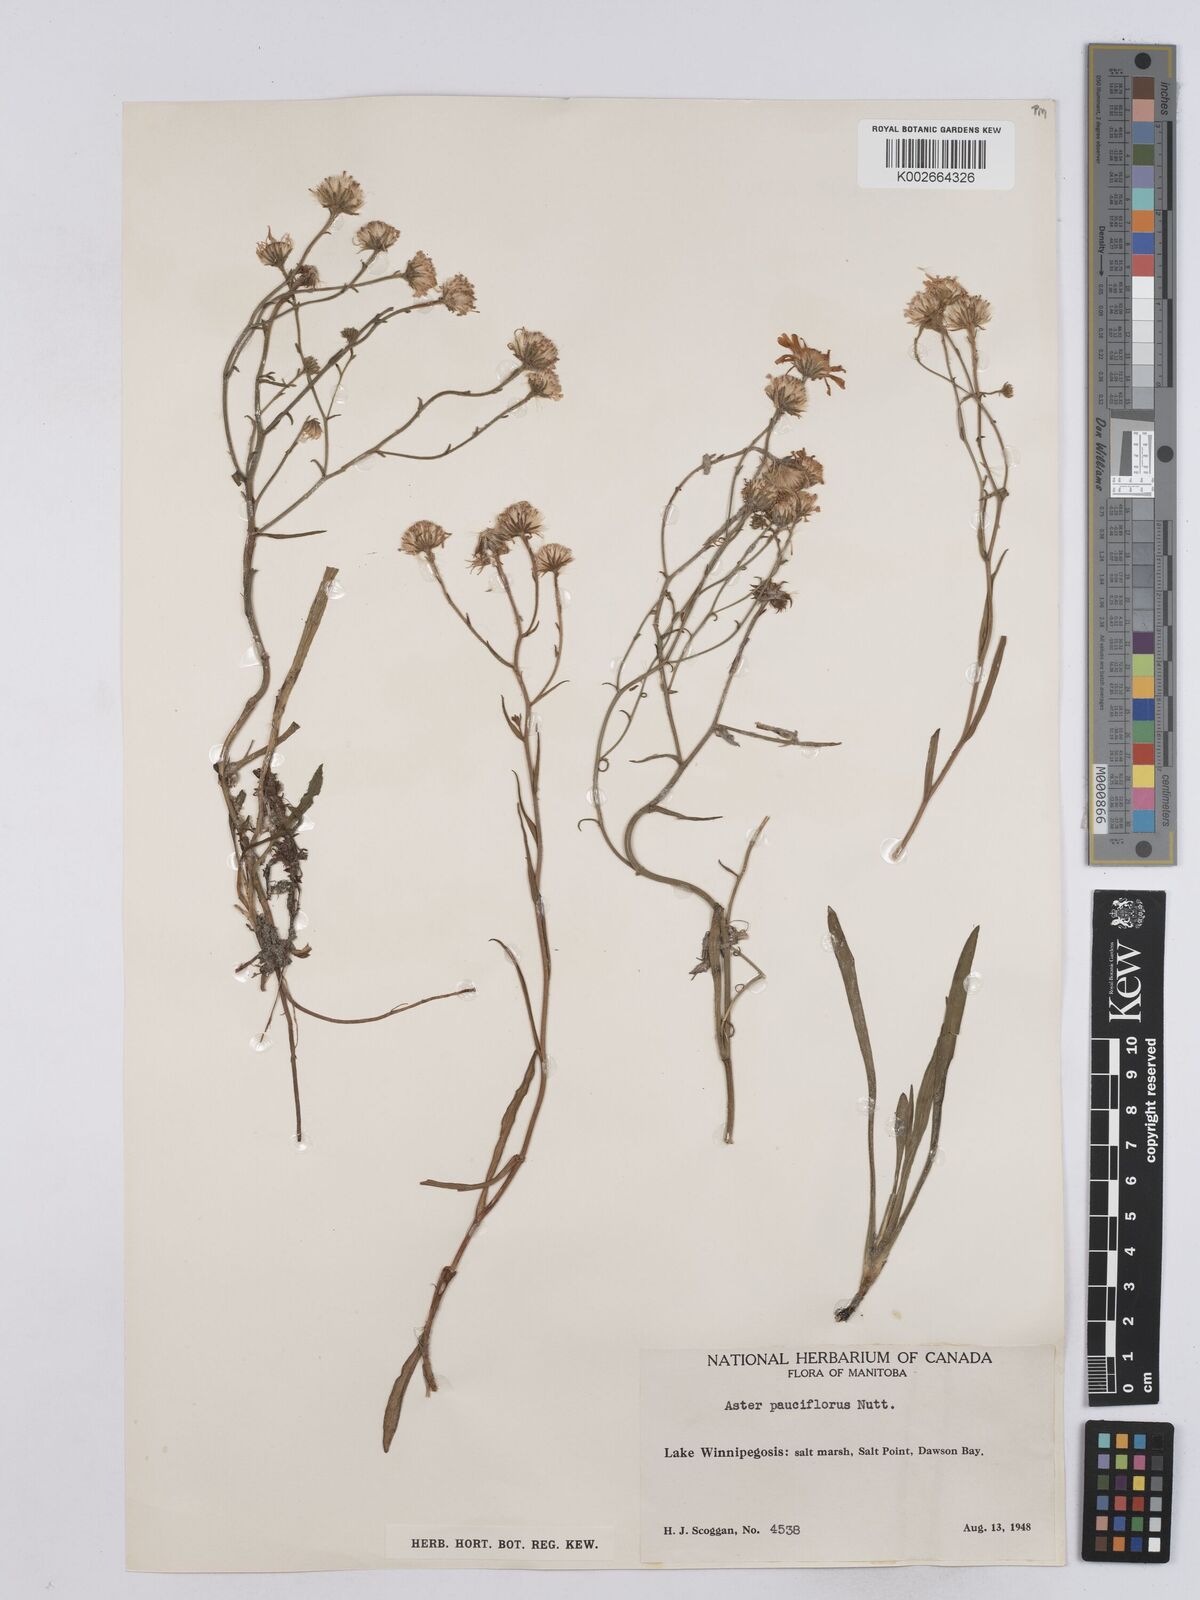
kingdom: Plantae
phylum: Tracheophyta
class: Magnoliopsida
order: Asterales
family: Asteraceae
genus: Almutaster
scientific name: Almutaster pauciflorus
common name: Alkaline aster
